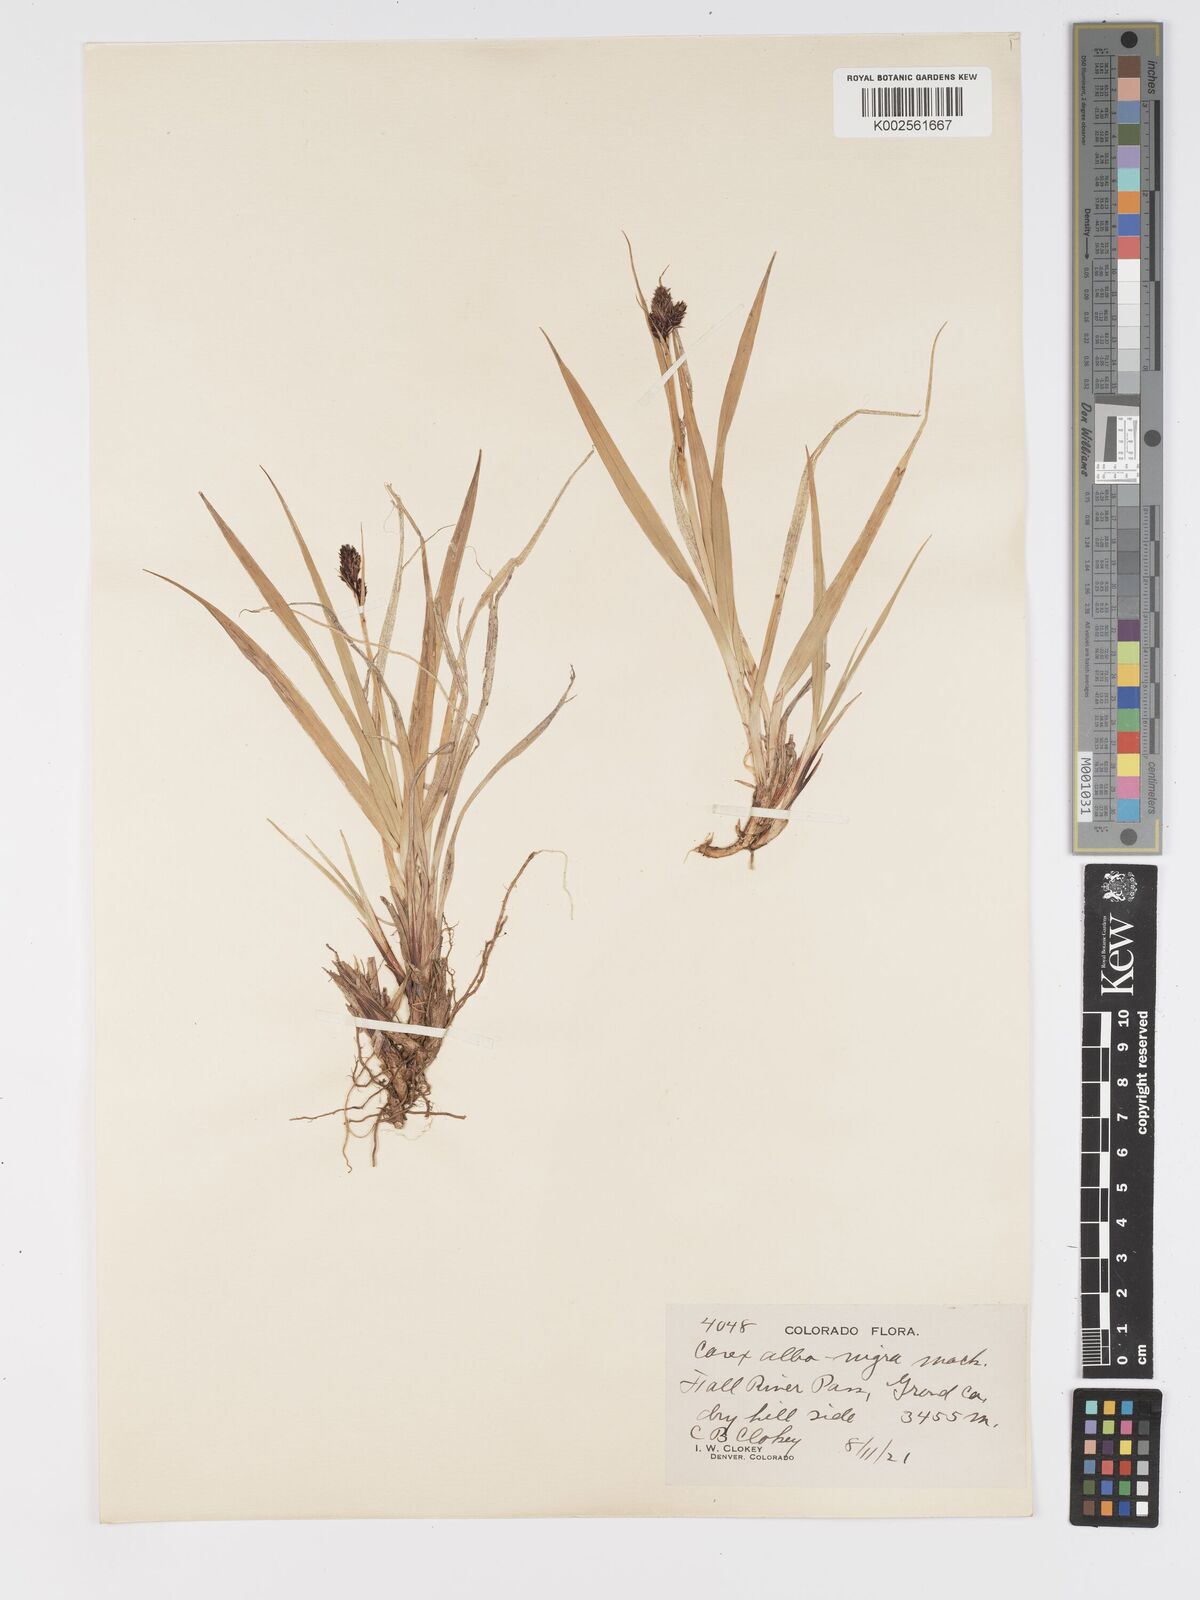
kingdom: Plantae
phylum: Tracheophyta
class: Liliopsida
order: Poales
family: Cyperaceae
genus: Carex
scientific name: Carex albonigra
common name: Black-and-white sedge
